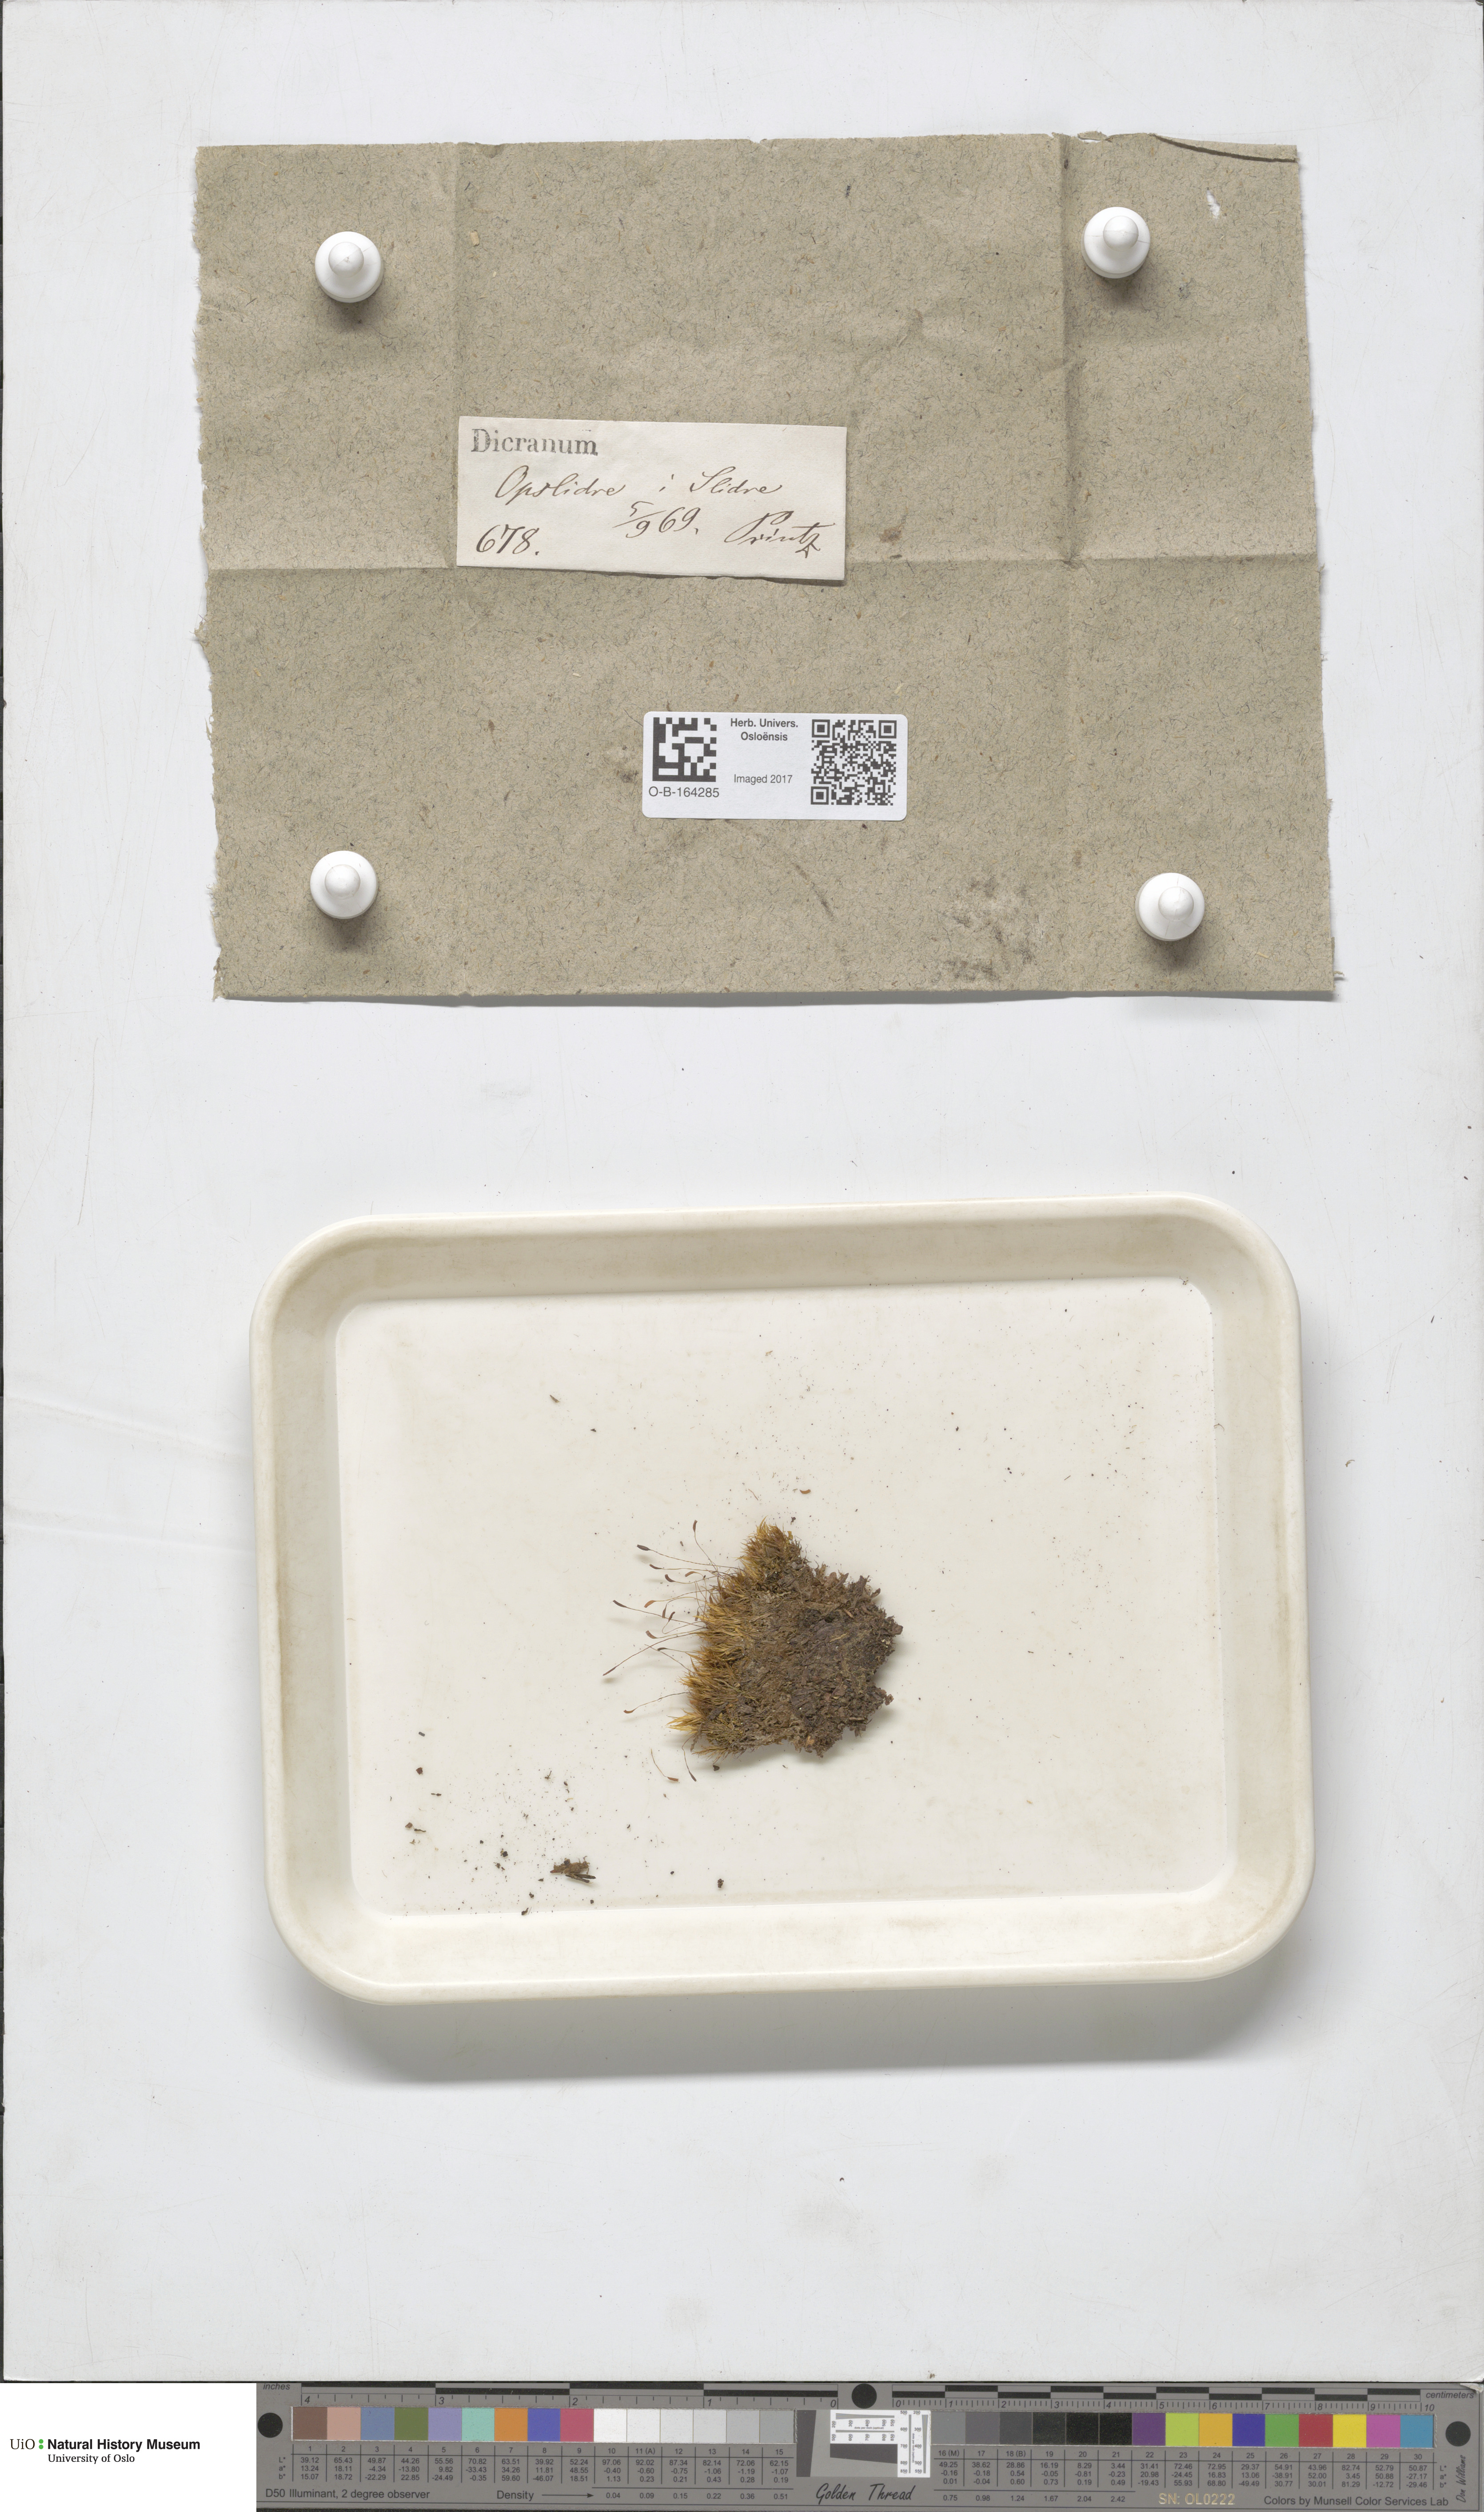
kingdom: Plantae
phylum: Bryophyta
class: Bryopsida
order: Dicranales
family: Dicranaceae
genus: Dicranum
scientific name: Dicranum
